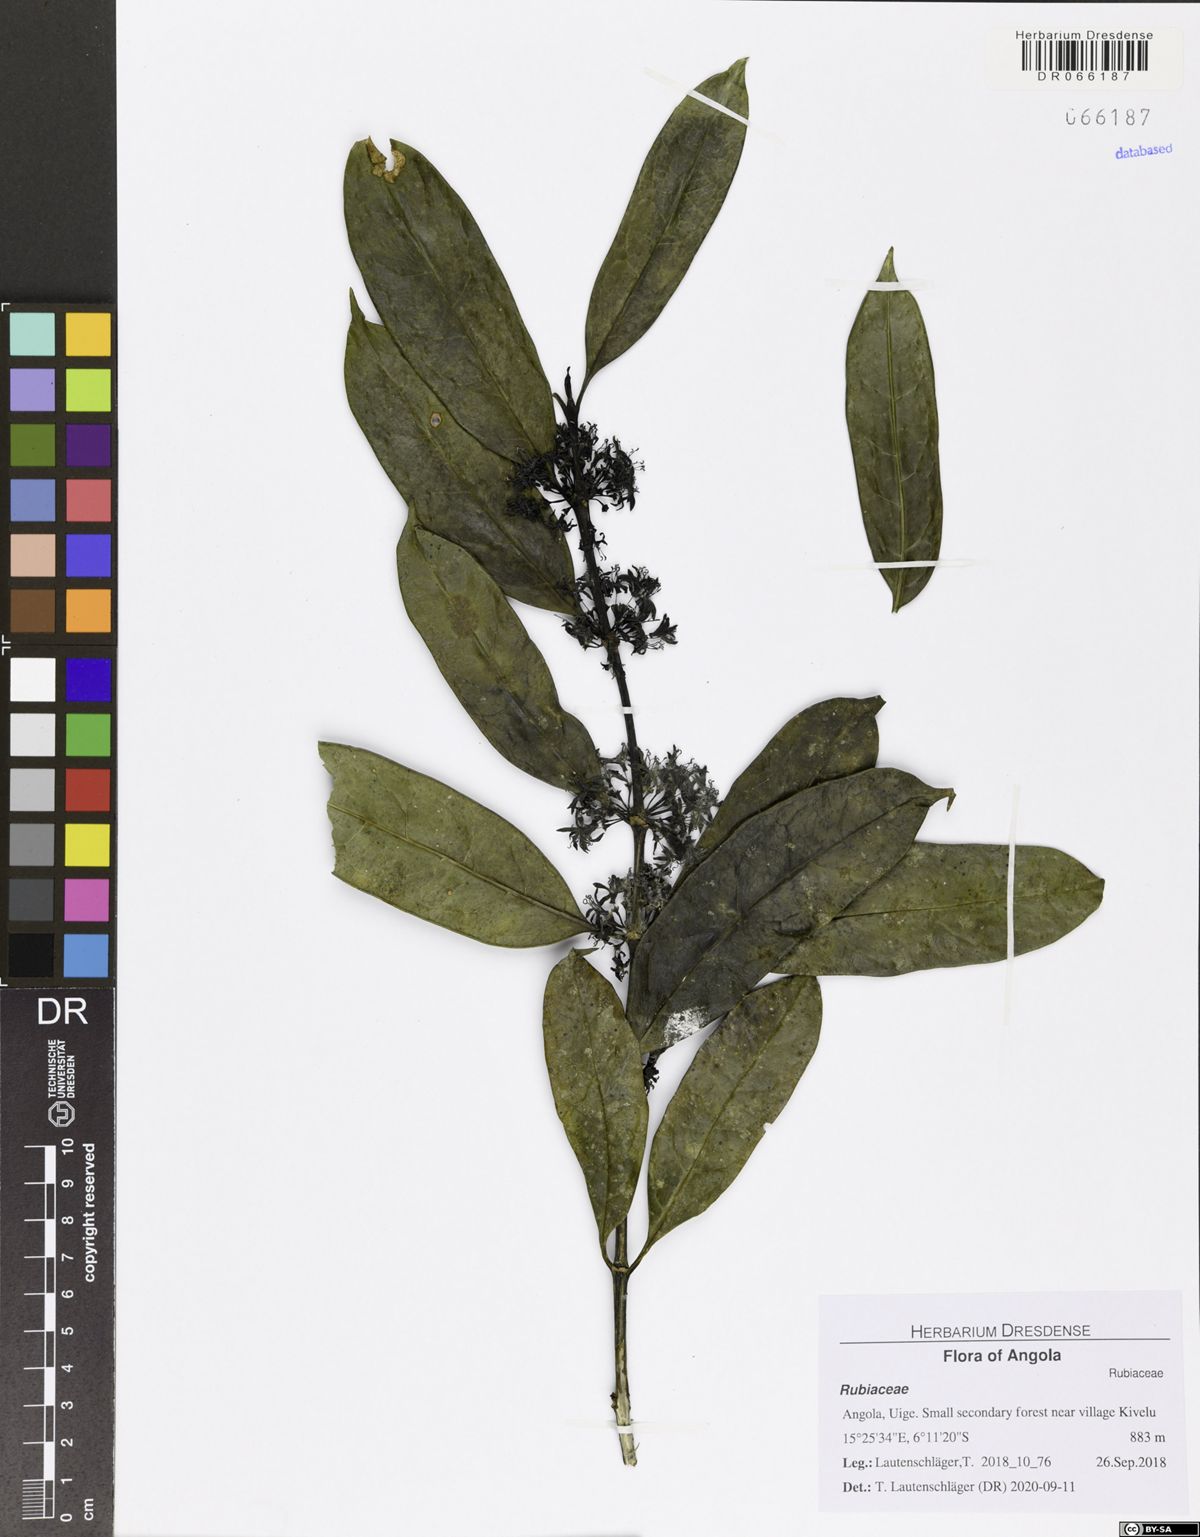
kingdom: Plantae
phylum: Tracheophyta
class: Magnoliopsida
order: Gentianales
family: Rubiaceae
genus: Colletoecema
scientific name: Colletoecema tortistilum
